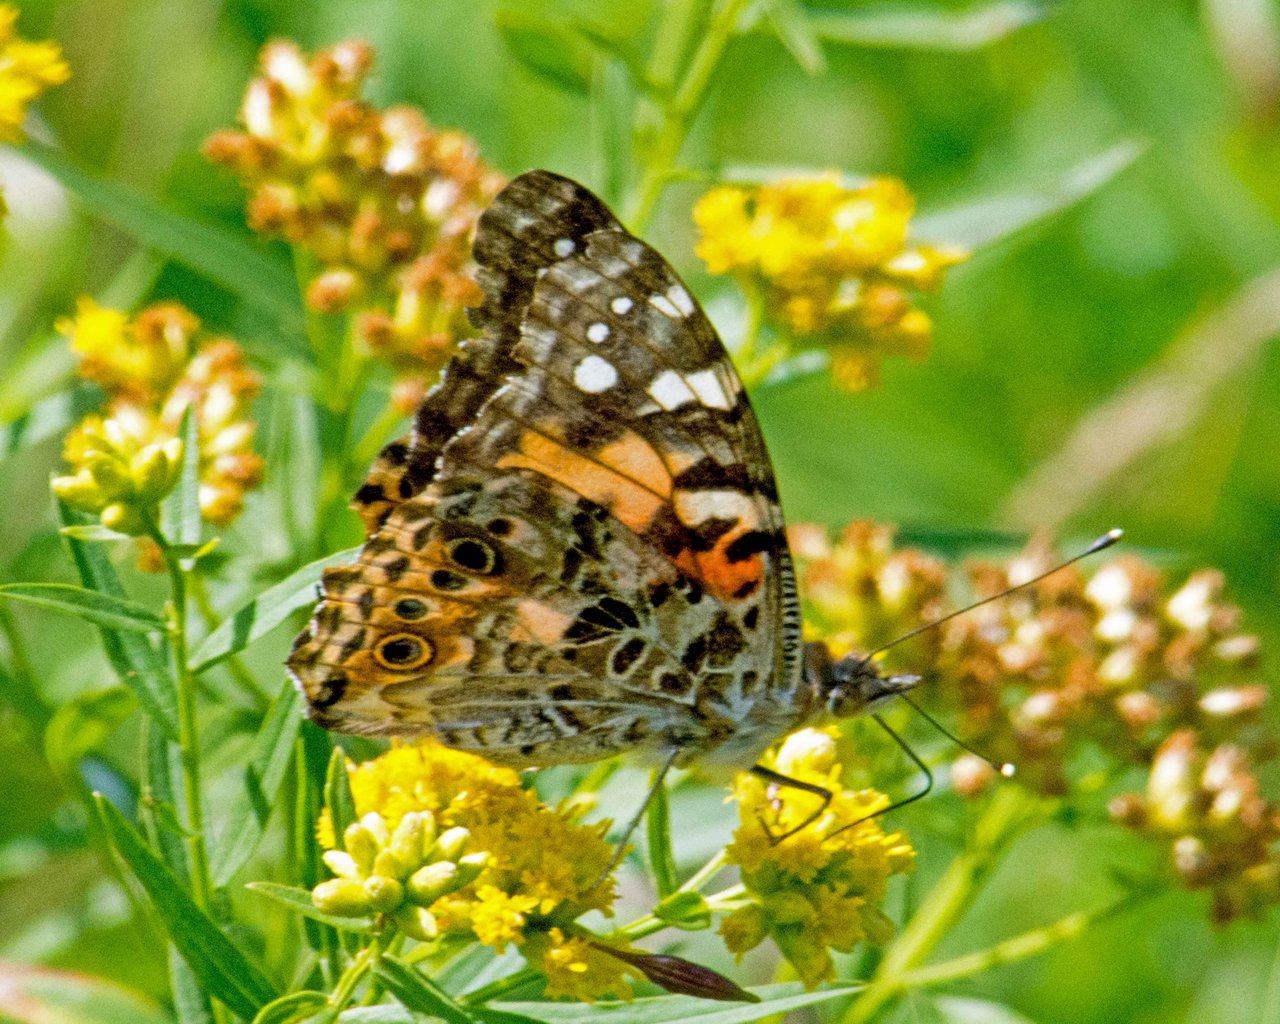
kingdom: Animalia
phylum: Arthropoda
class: Insecta
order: Lepidoptera
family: Nymphalidae
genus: Vanessa
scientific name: Vanessa cardui
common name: Painted Lady
